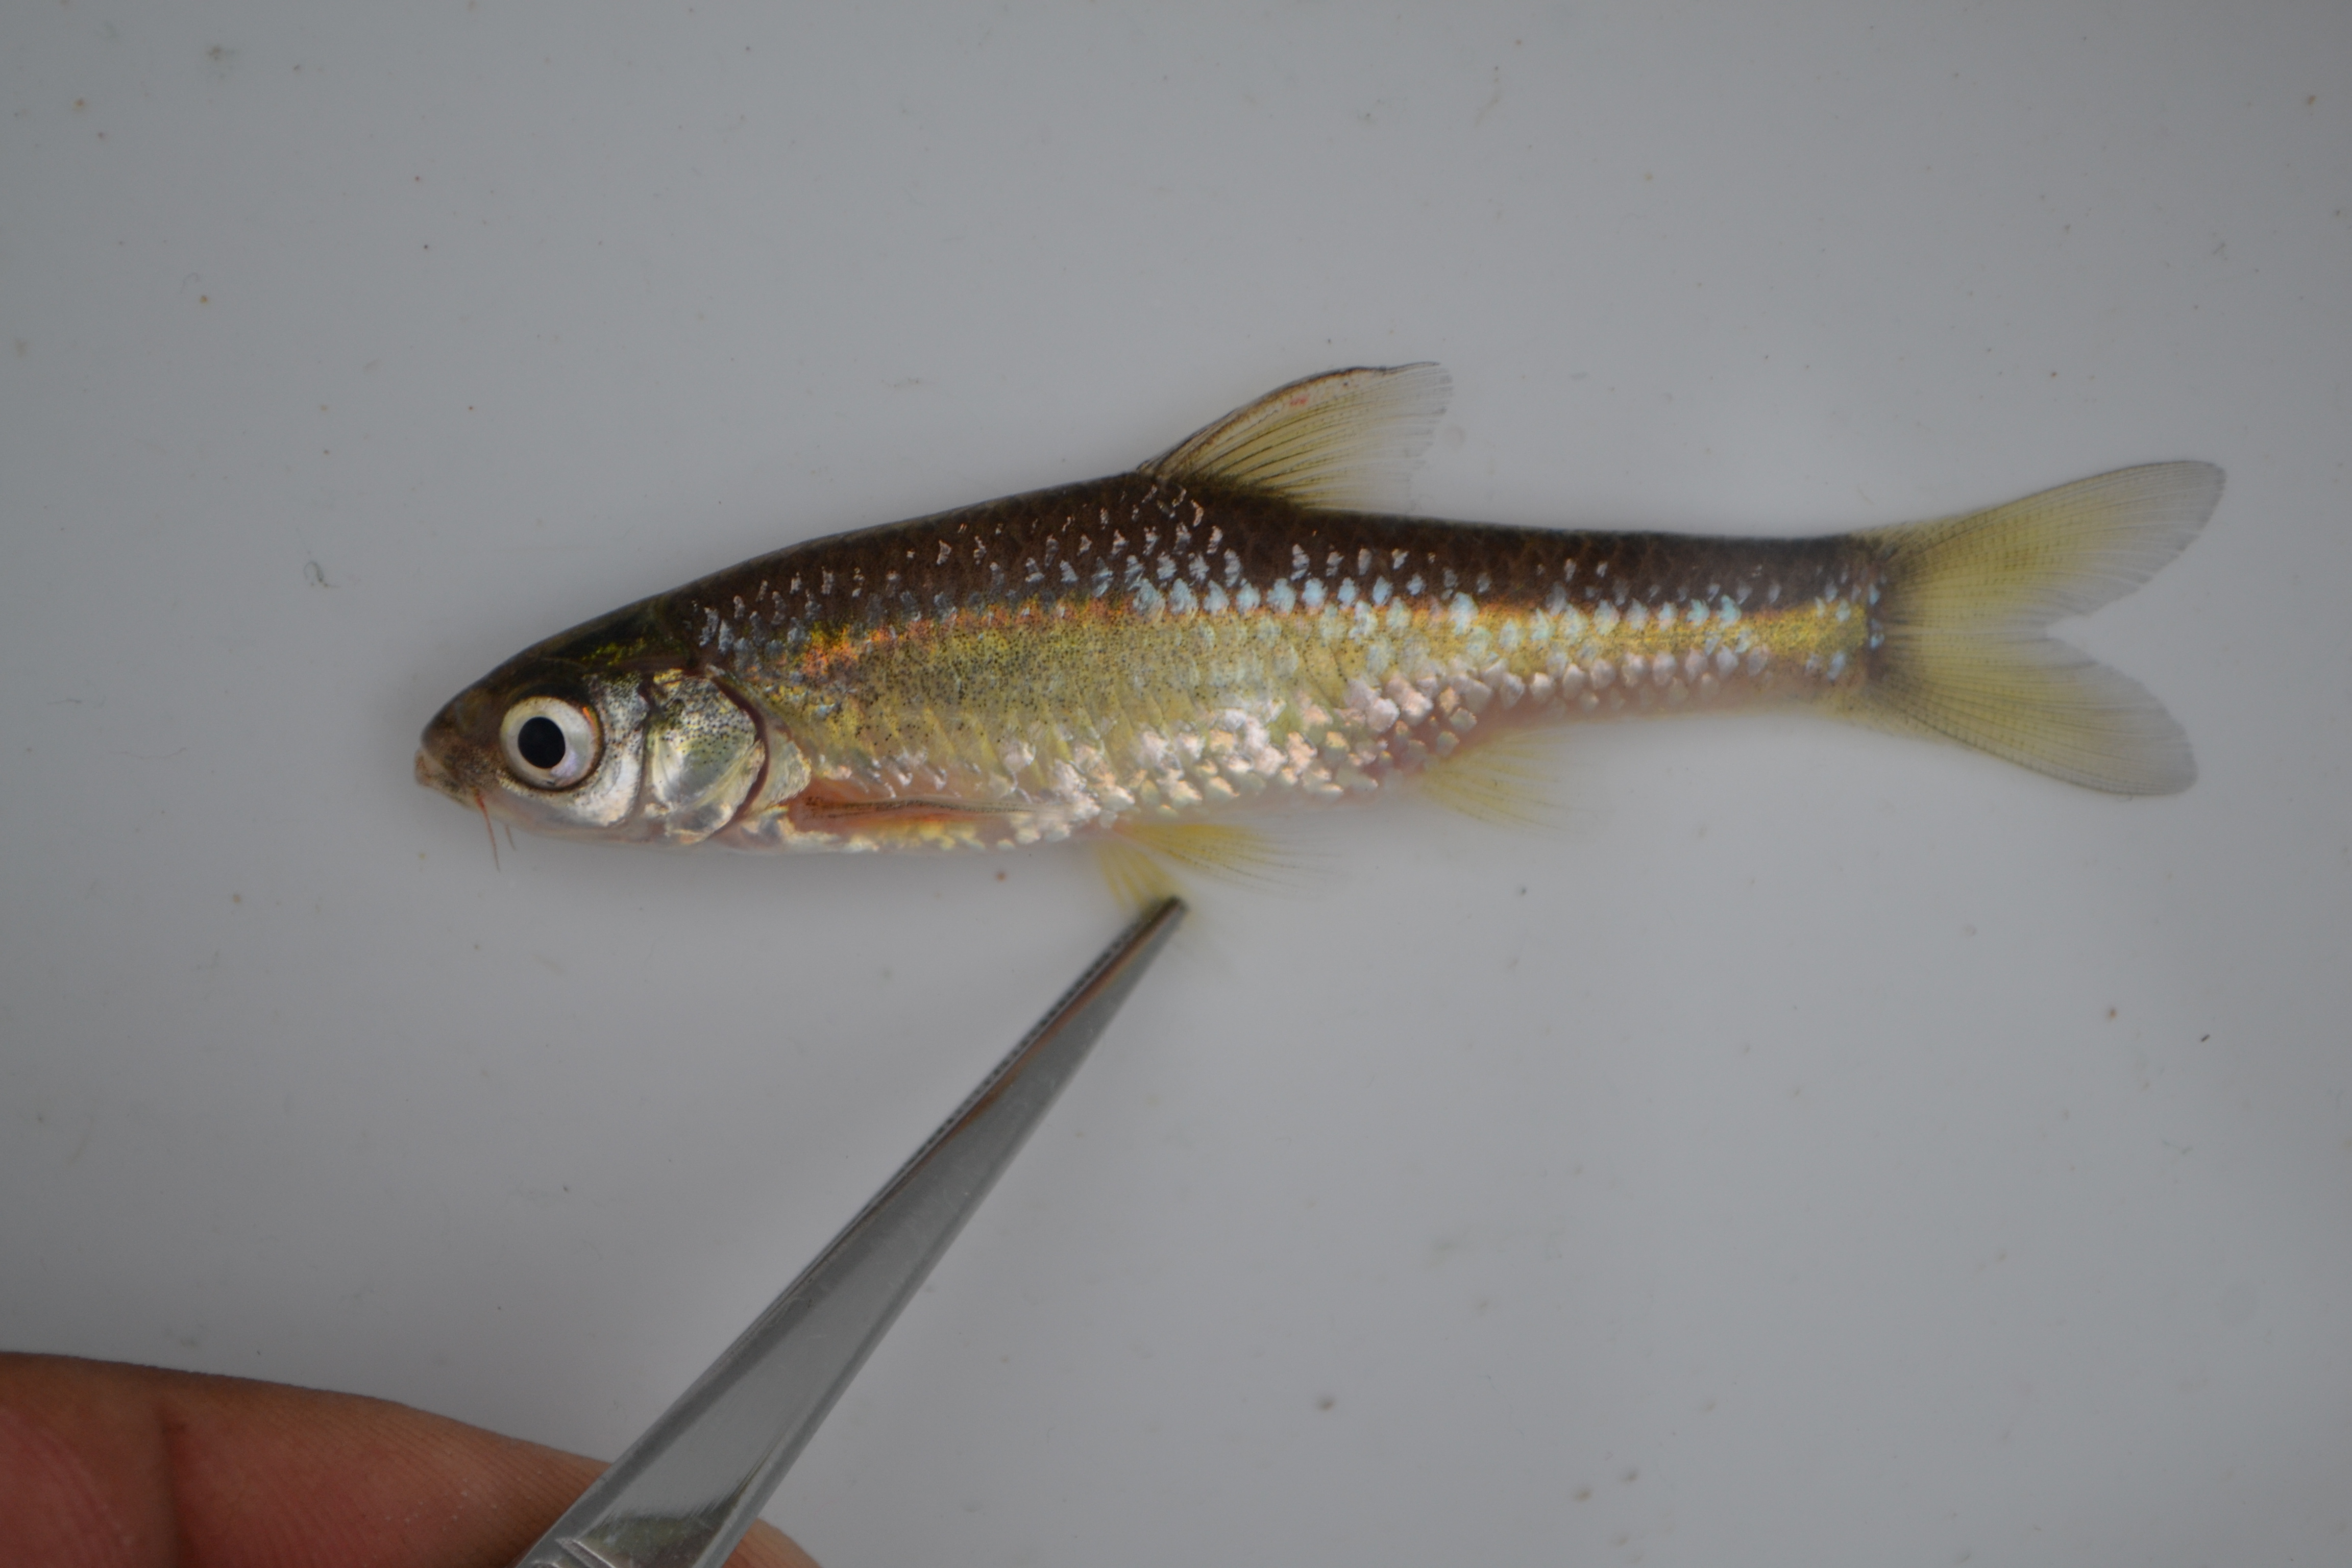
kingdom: Animalia
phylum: Chordata
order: Cypriniformes
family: Cyprinidae
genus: Enteromius
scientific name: Enteromius paludinosus
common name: Straightfin barb
